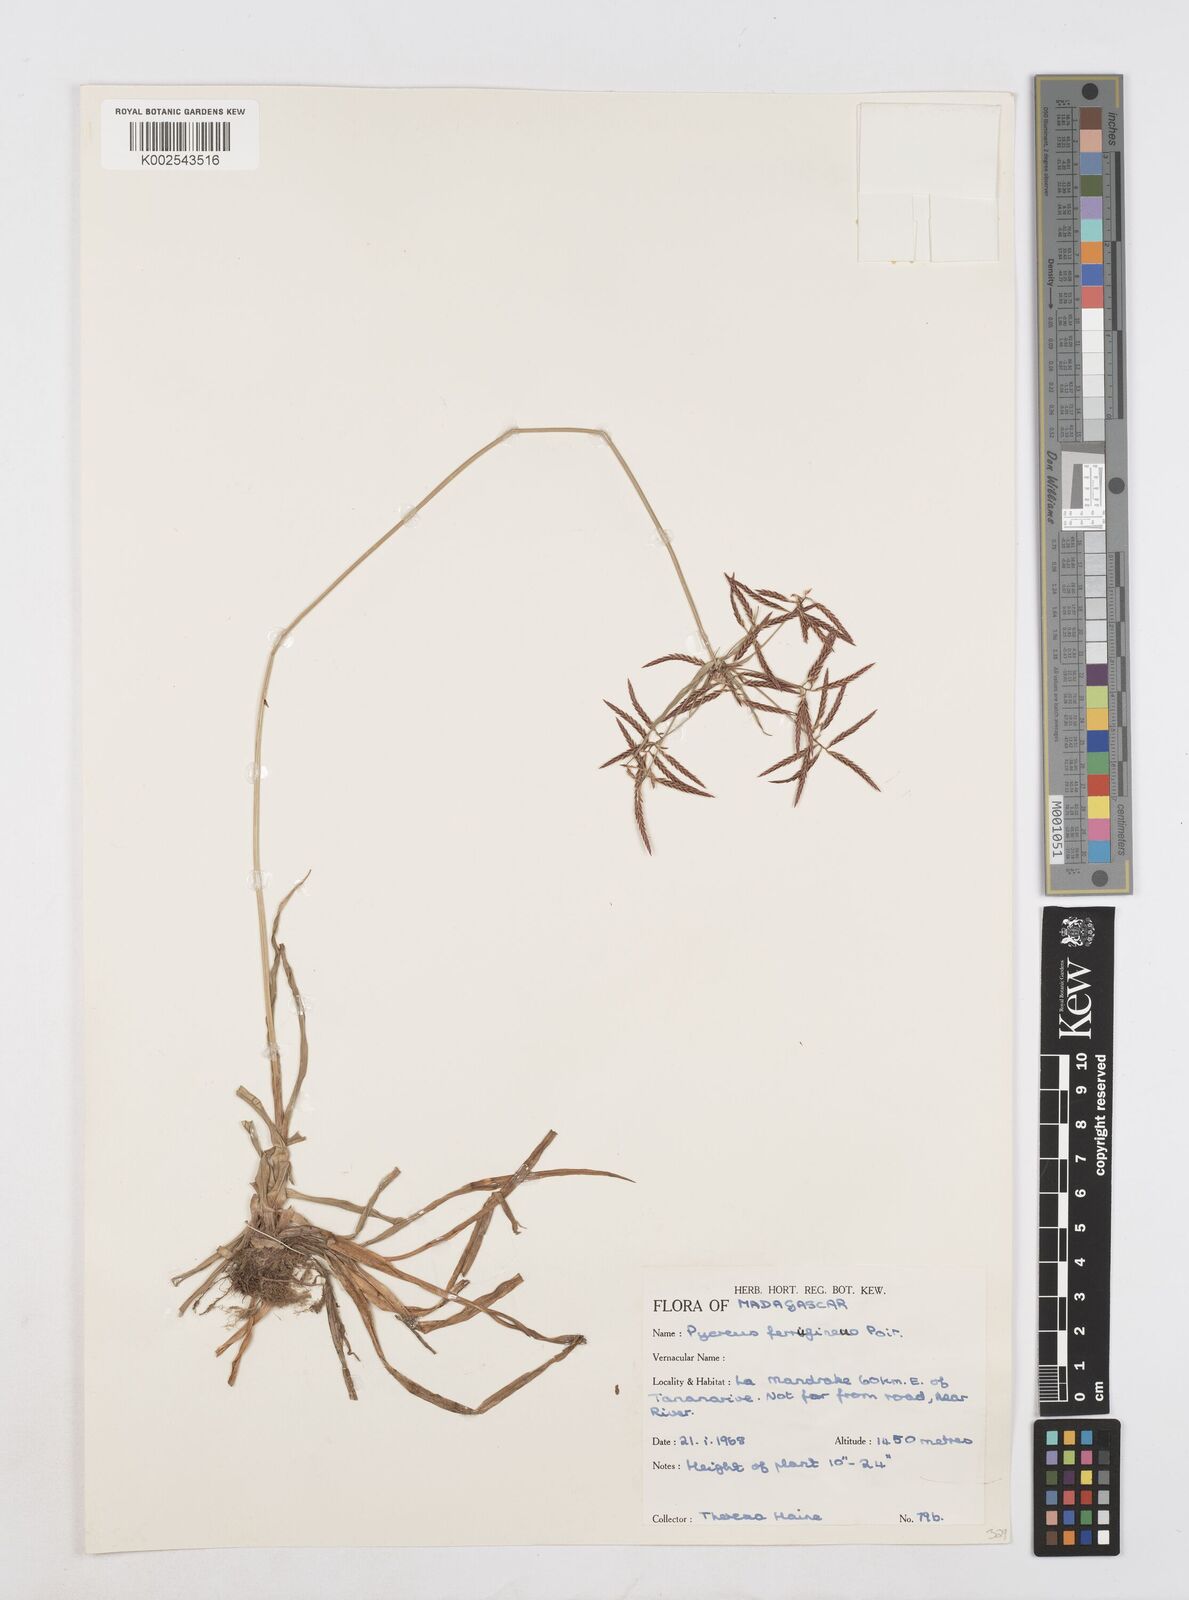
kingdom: Plantae
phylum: Tracheophyta
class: Liliopsida
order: Poales
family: Cyperaceae
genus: Cyperus
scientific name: Cyperus intactus
